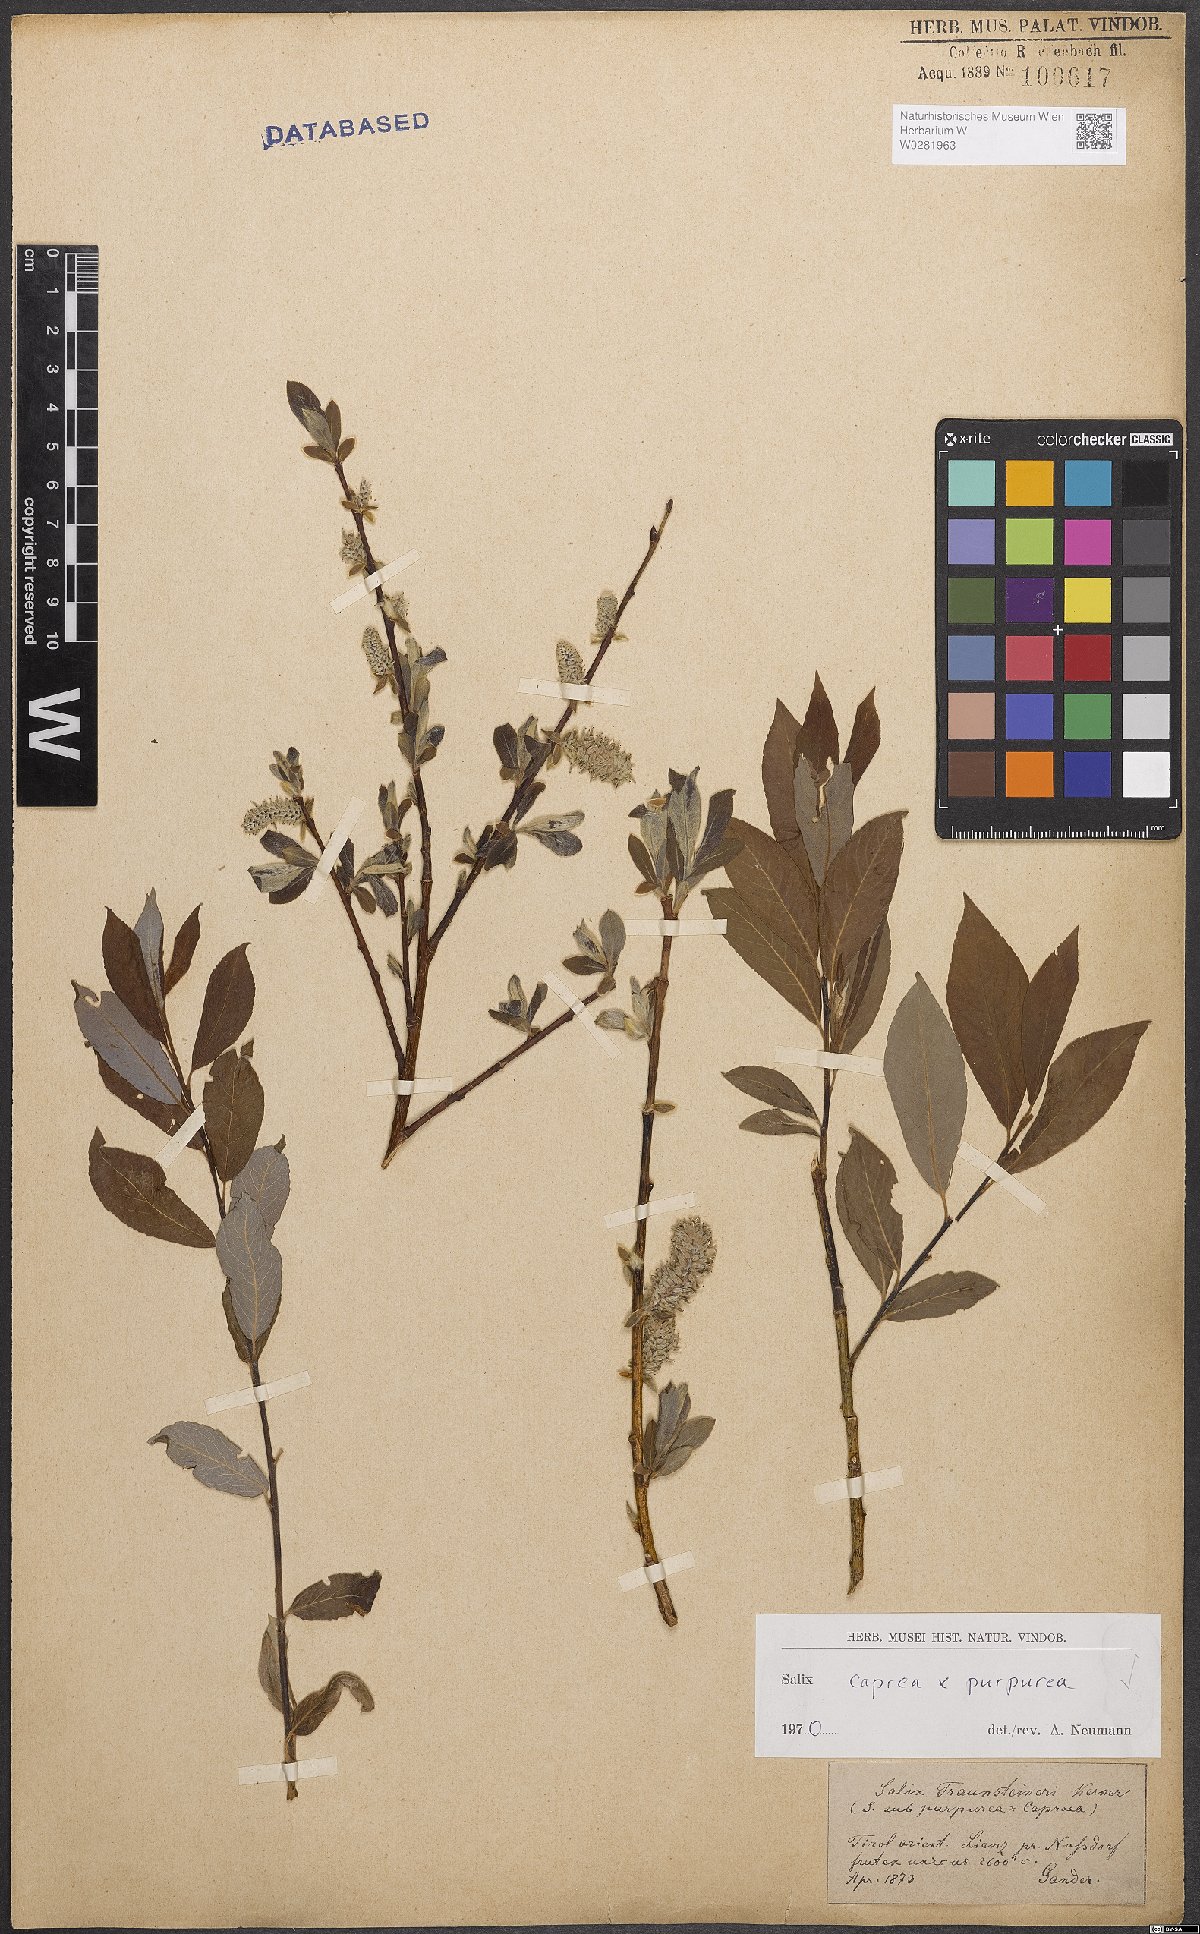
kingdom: Plantae
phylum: Tracheophyta
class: Magnoliopsida
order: Malpighiales
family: Salicaceae
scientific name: Salicaceae
